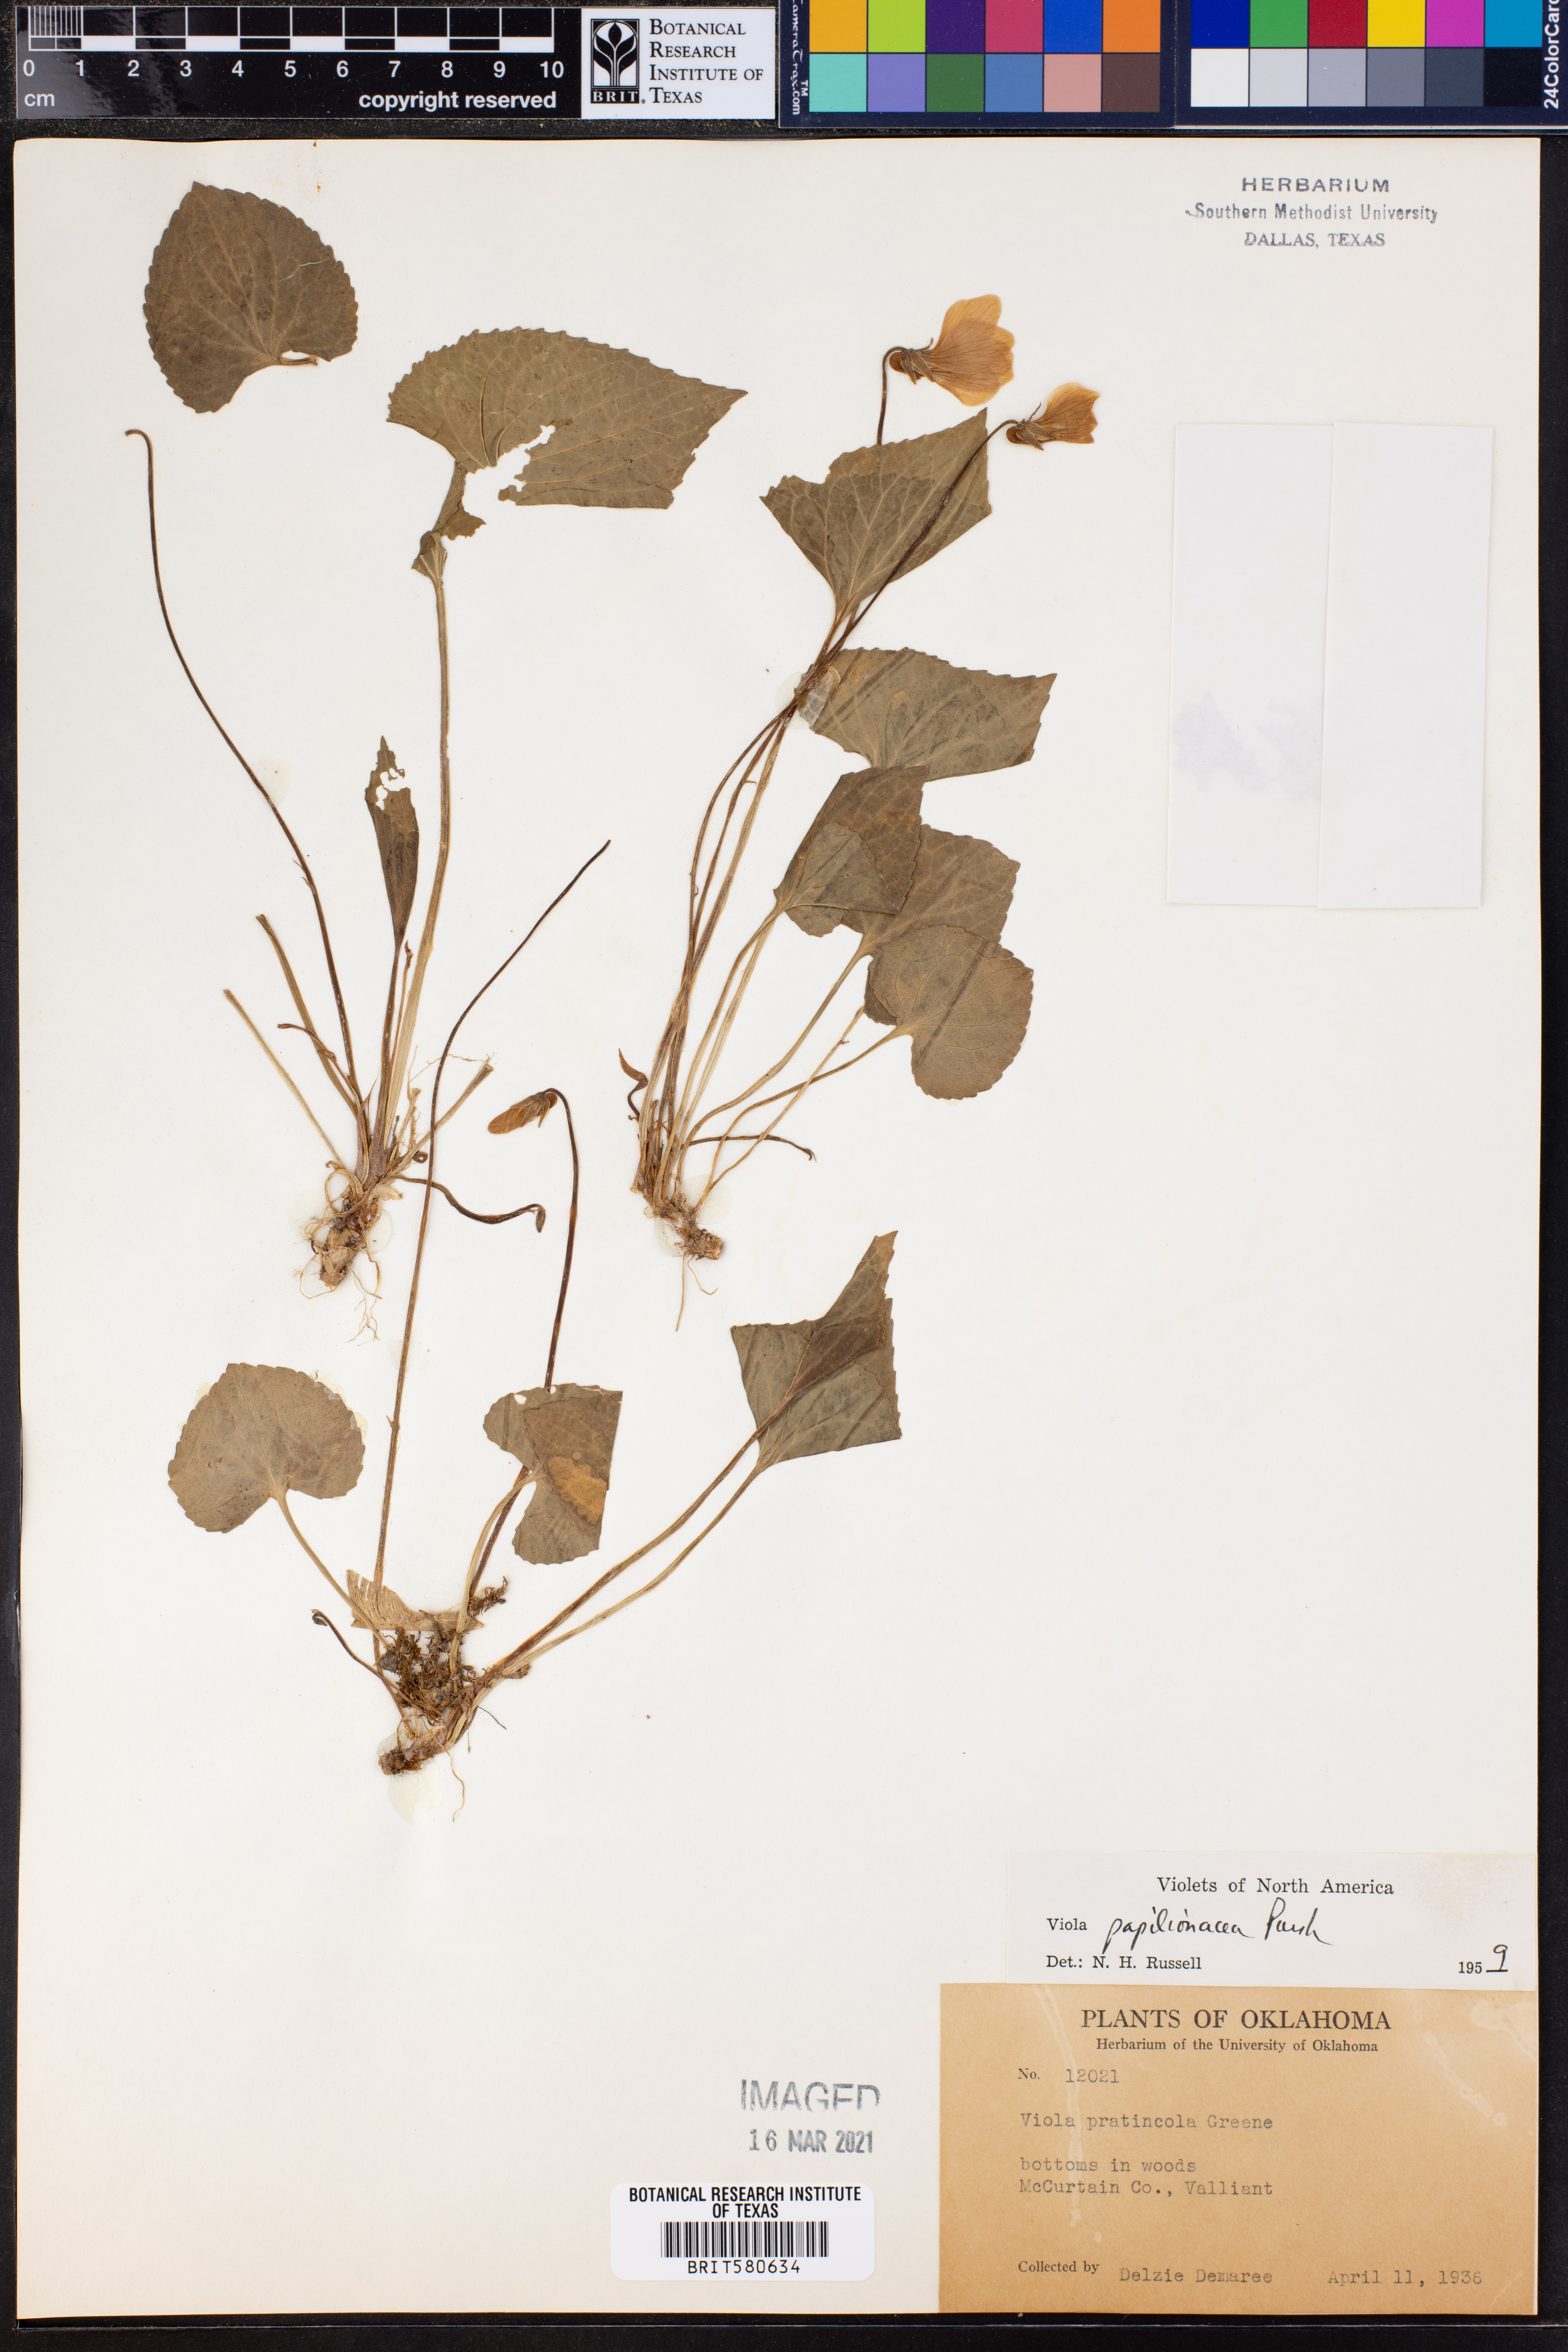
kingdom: Plantae
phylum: Tracheophyta
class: Magnoliopsida
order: Malpighiales
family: Violaceae
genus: Viola
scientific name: Viola sororia
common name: Dooryard violet
